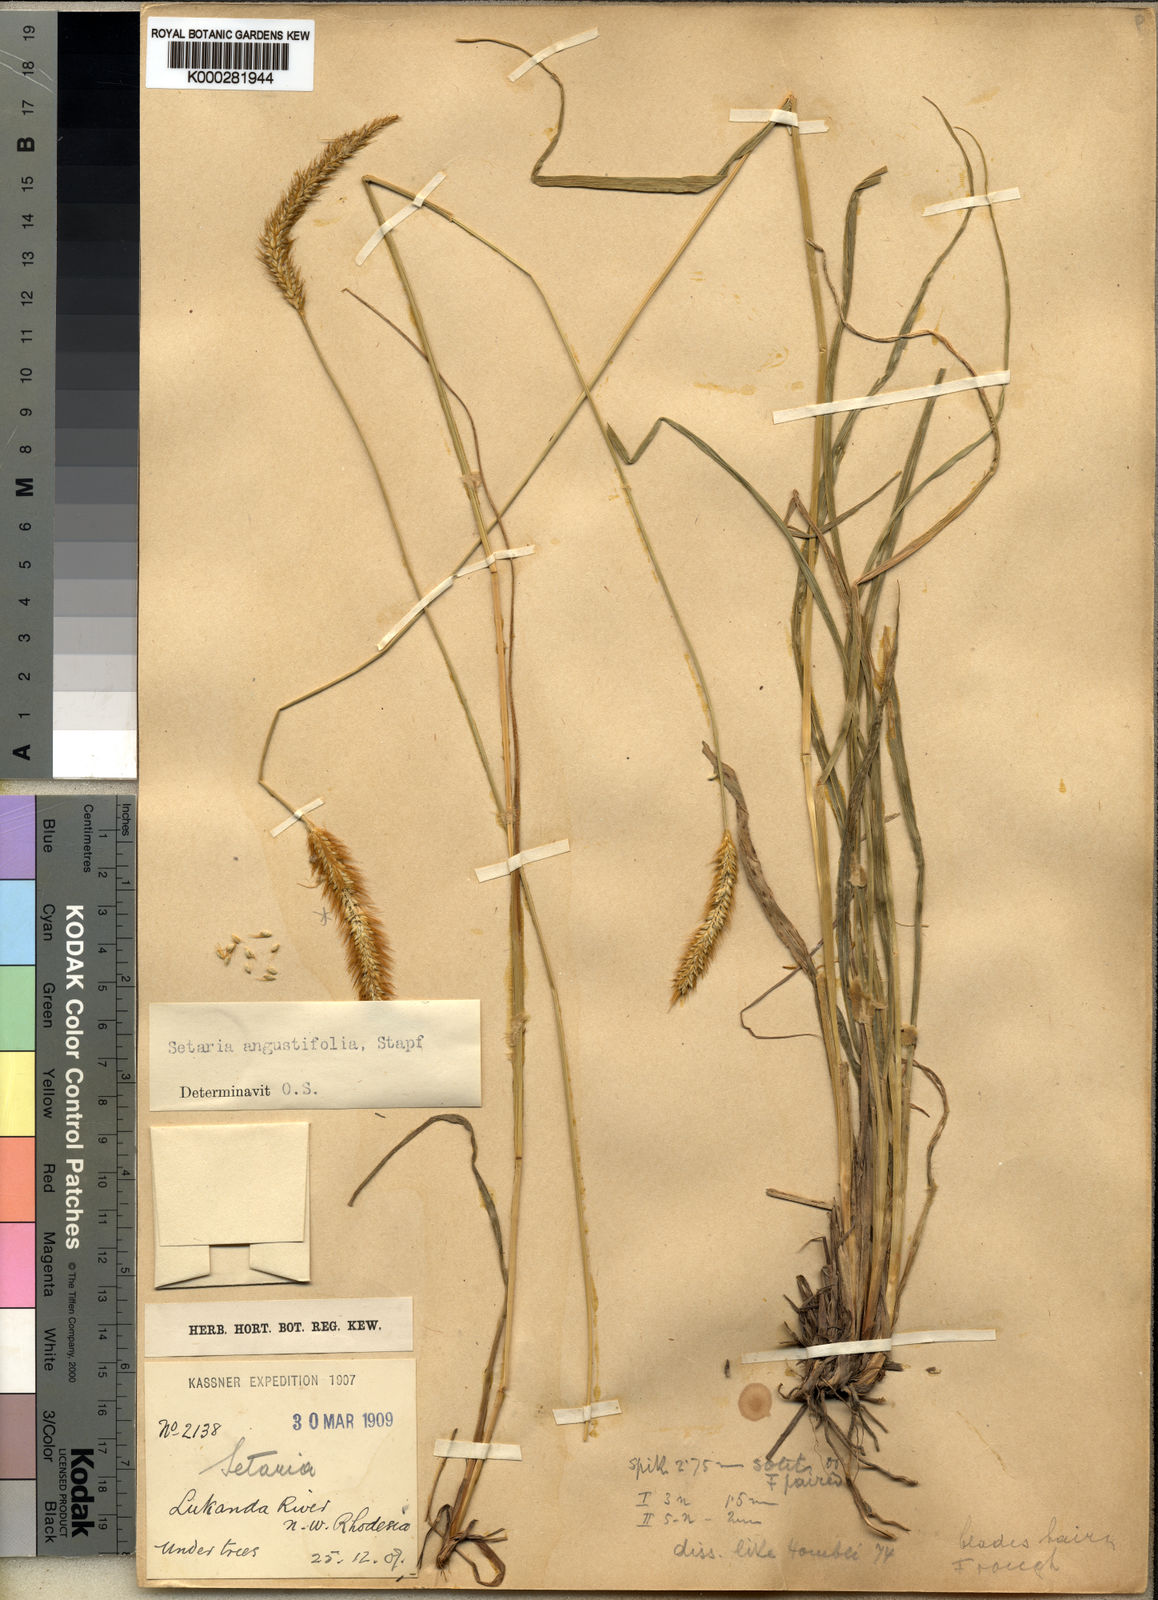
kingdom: Plantae
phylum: Tracheophyta
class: Liliopsida
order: Poales
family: Poaceae
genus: Setaria
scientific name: Setaria sphacelata
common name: African bristlegrass
